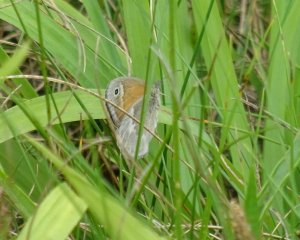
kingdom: Animalia
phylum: Arthropoda
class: Insecta
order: Lepidoptera
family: Nymphalidae
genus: Coenonympha
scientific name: Coenonympha tullia
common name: Large Heath
